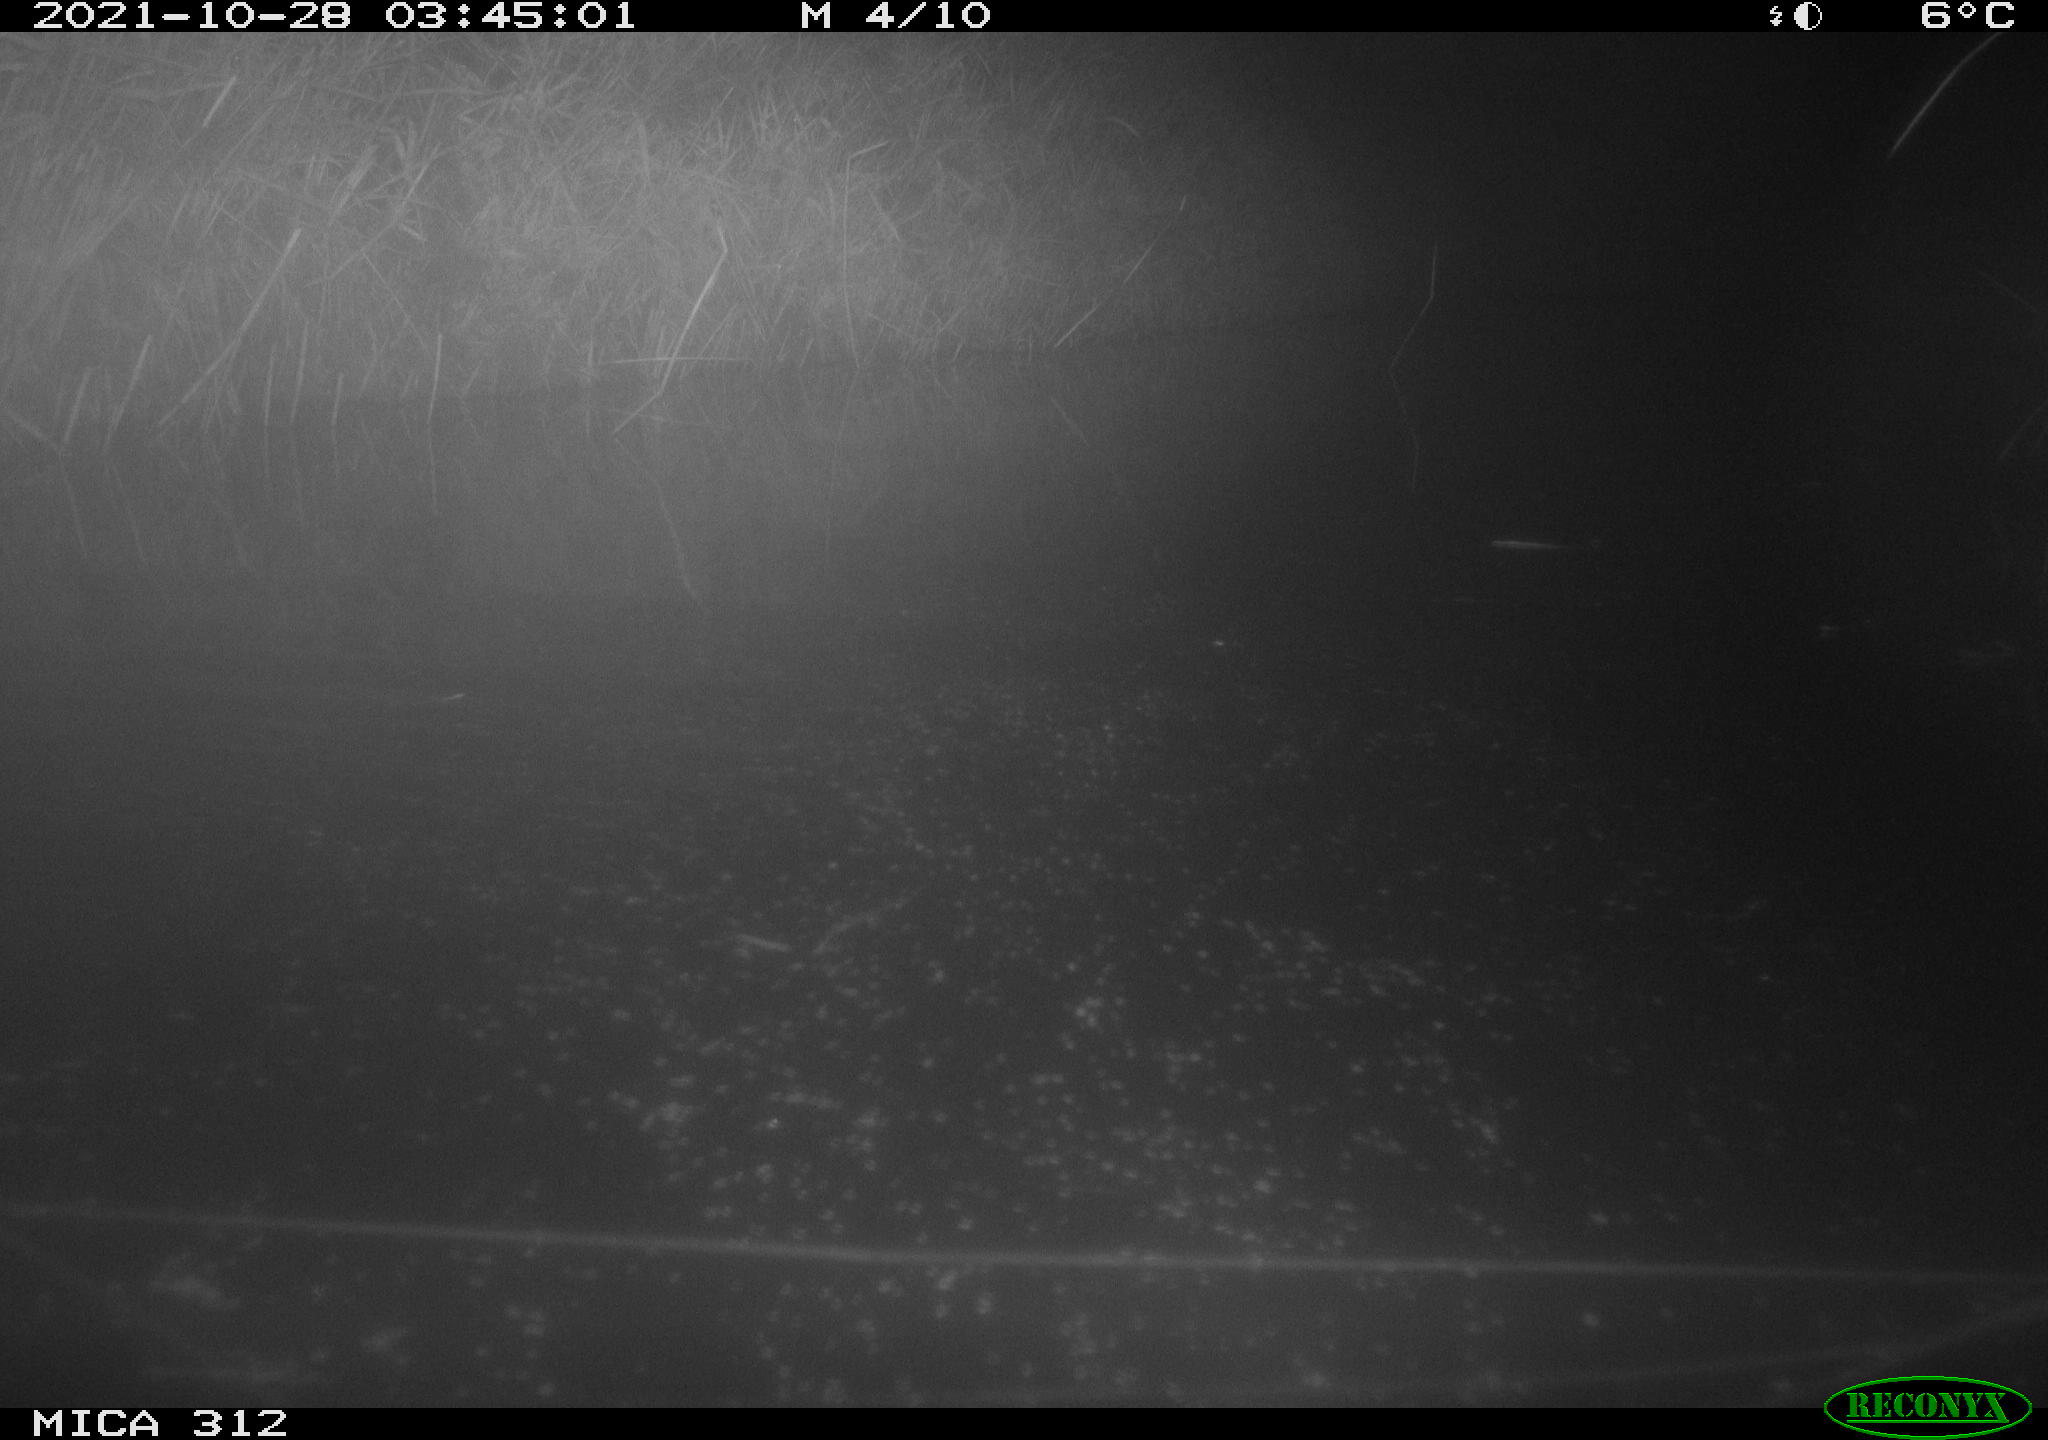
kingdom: Animalia
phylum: Chordata
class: Mammalia
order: Rodentia
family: Muridae
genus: Rattus
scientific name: Rattus norvegicus
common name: Brown rat
